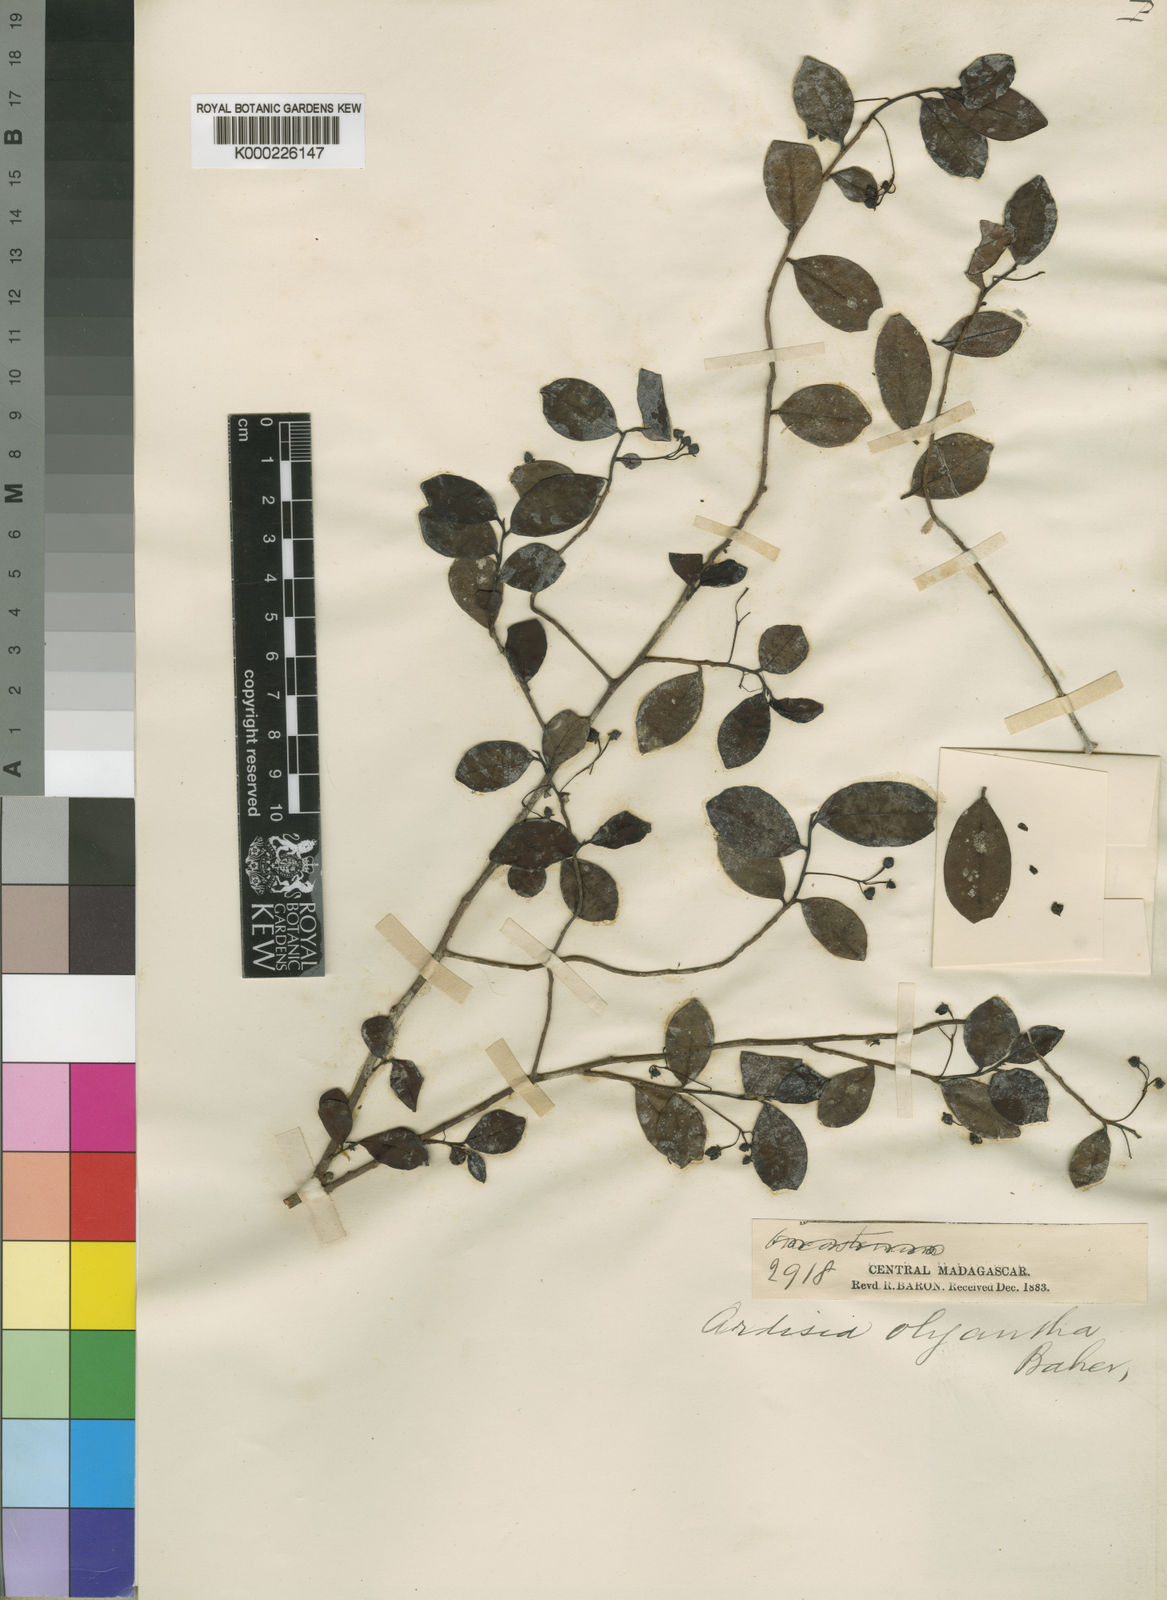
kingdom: Plantae
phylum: Tracheophyta
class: Magnoliopsida
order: Ericales
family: Primulaceae
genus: Oncostemum
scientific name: Oncostemum oliganthum
